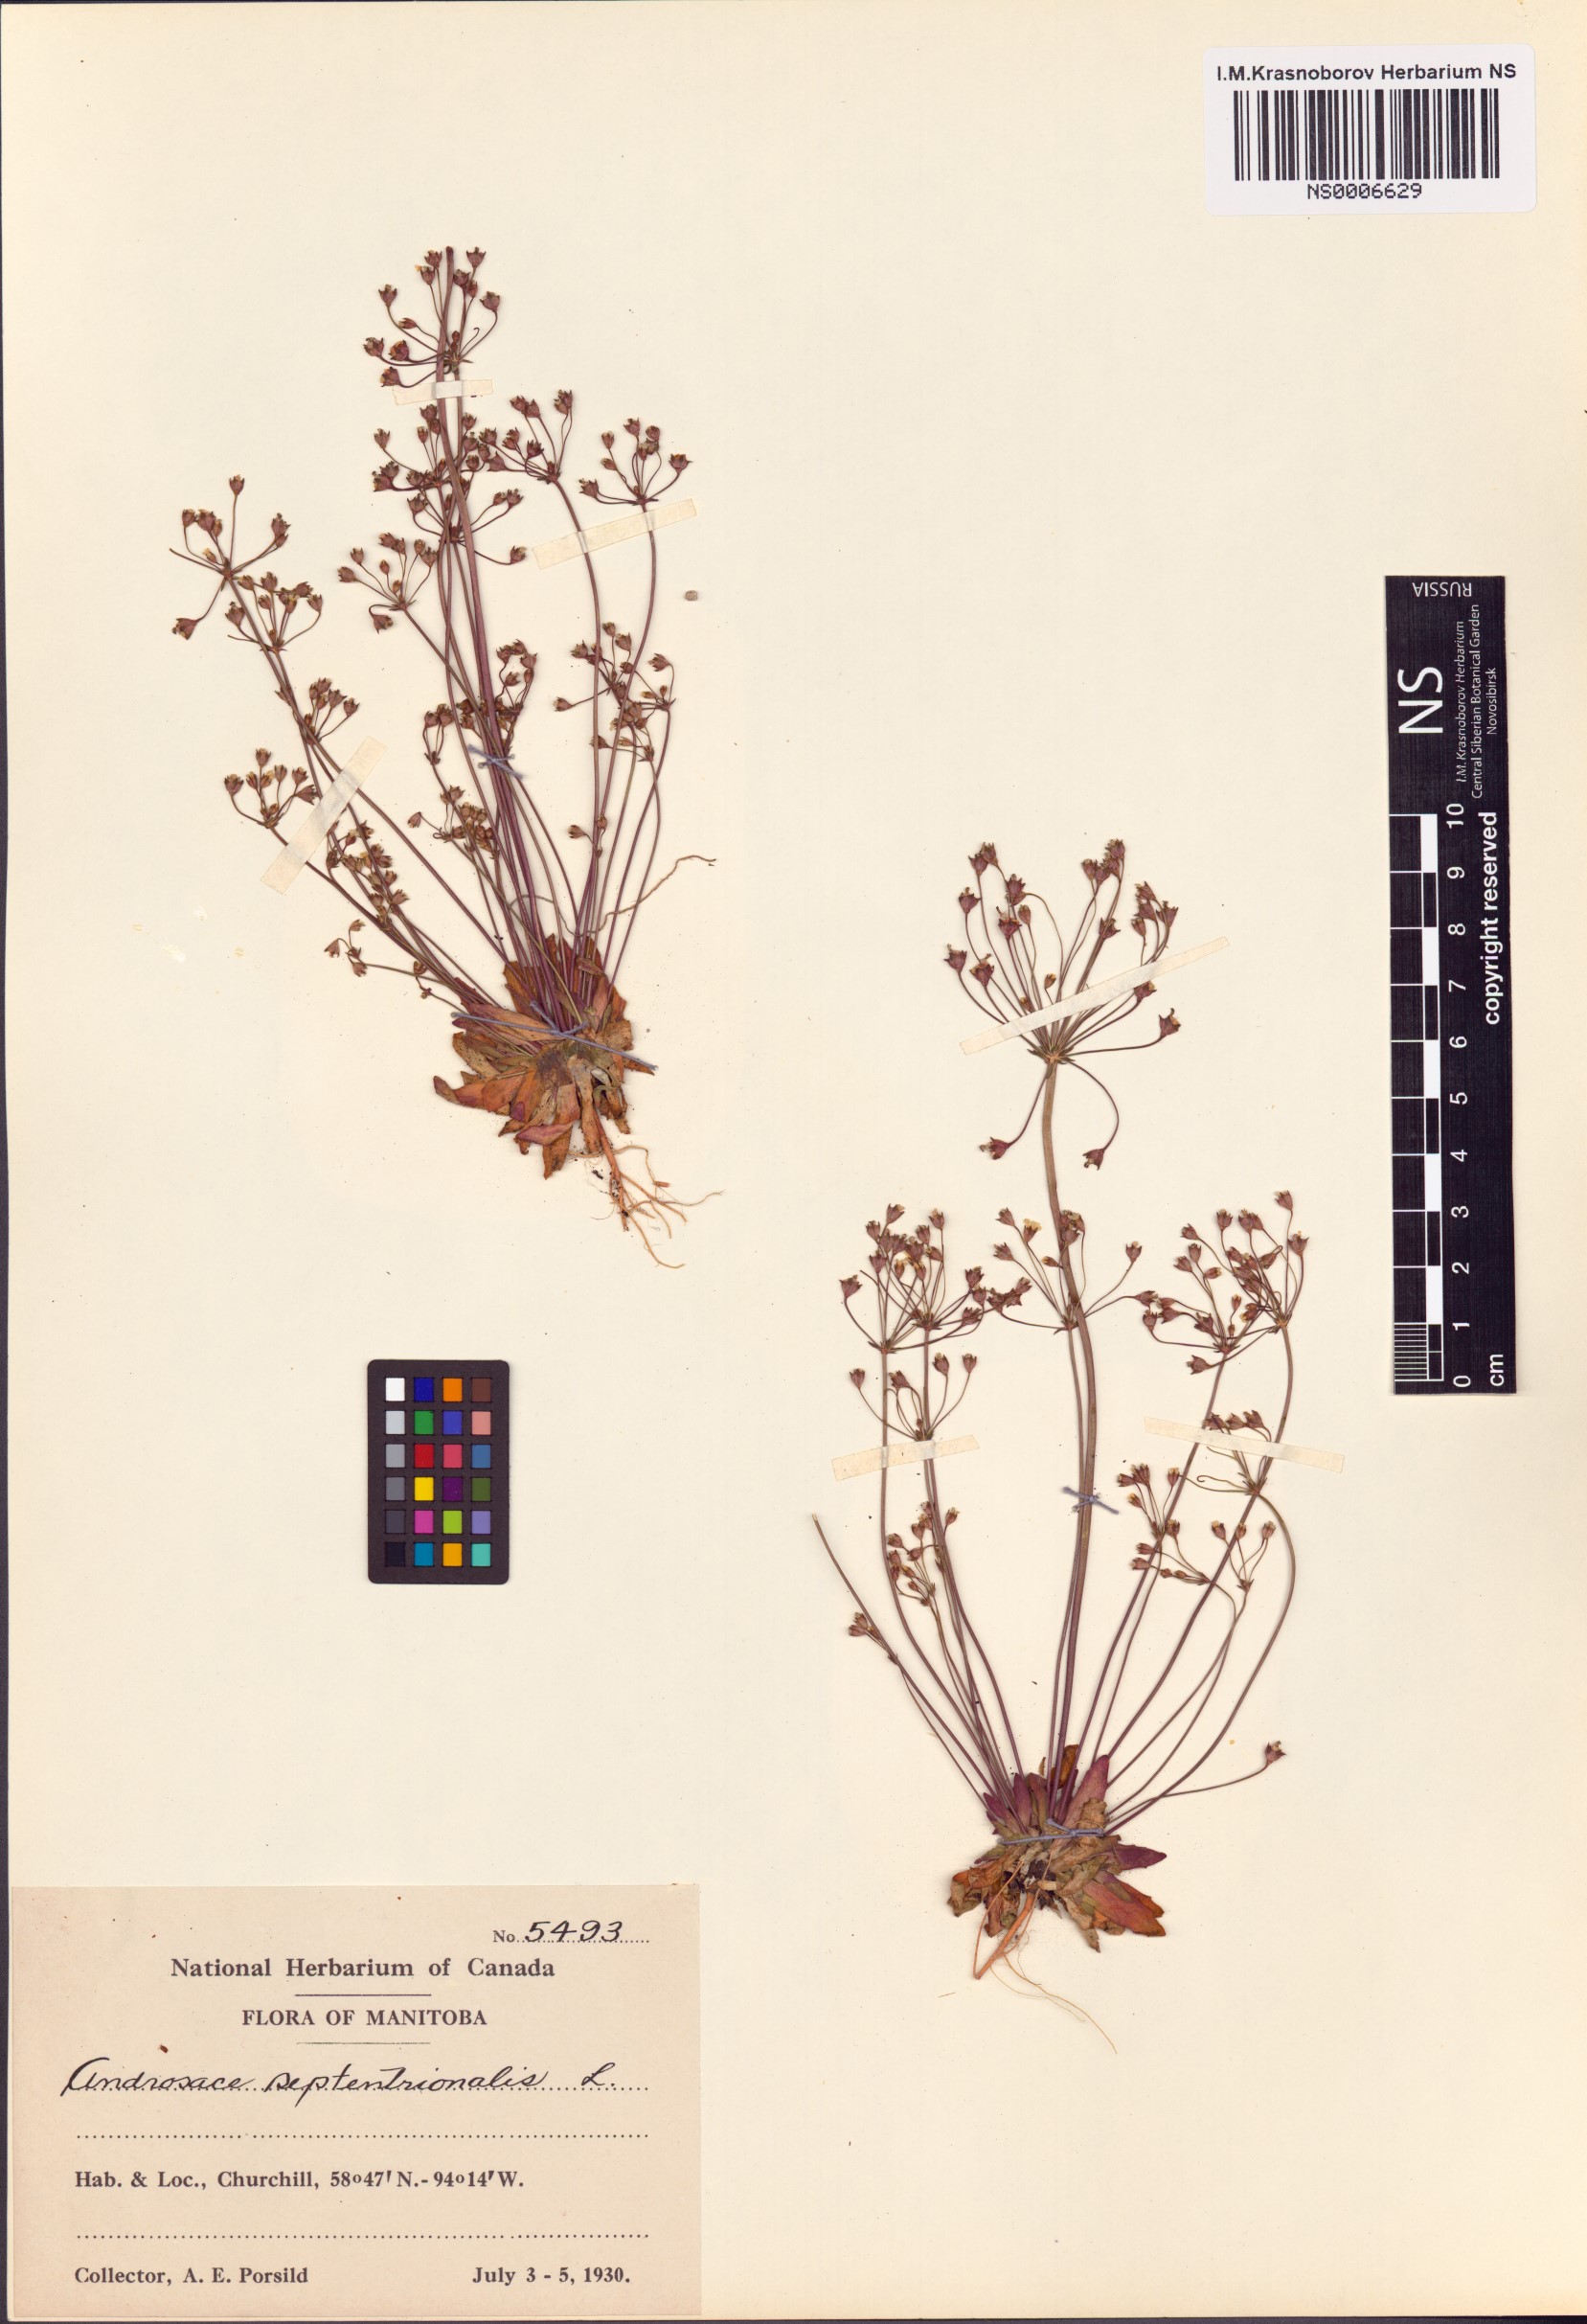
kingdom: Plantae
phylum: Tracheophyta
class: Magnoliopsida
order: Ericales
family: Primulaceae
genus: Androsace
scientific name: Androsace septentrionalis
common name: Hairy northern fairy-candelabra
